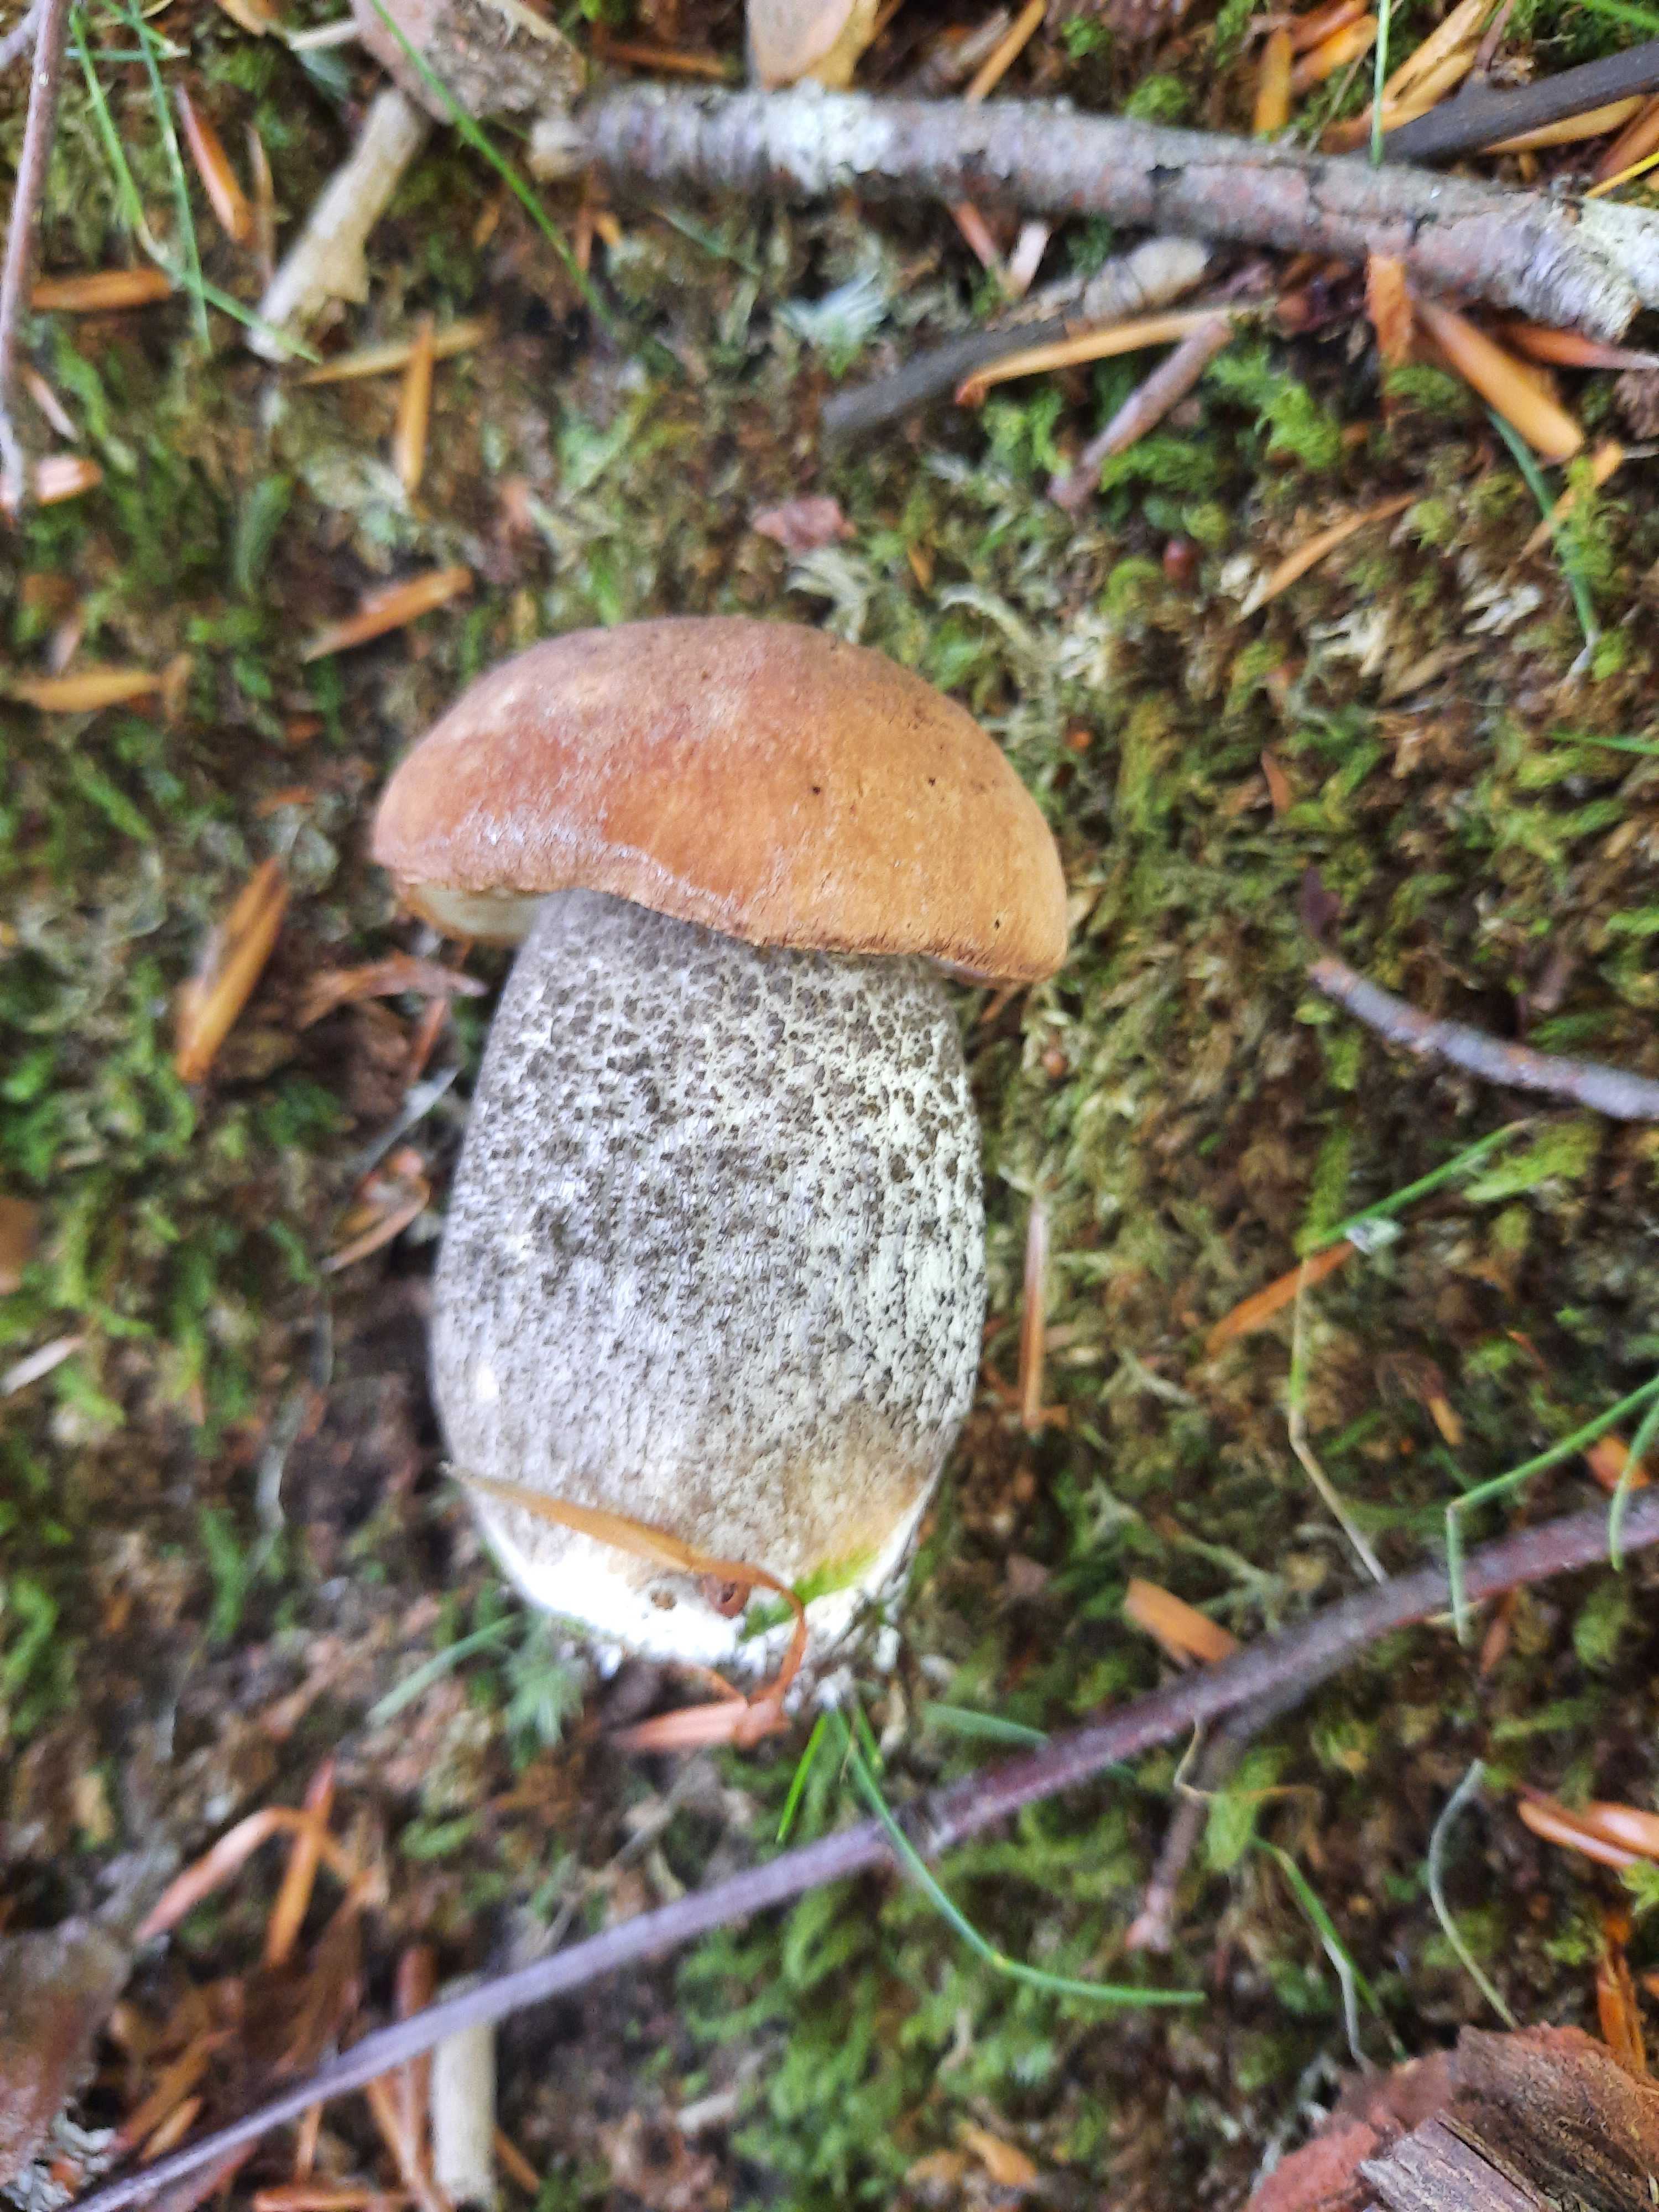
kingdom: Fungi
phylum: Basidiomycota
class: Agaricomycetes
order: Boletales
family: Boletaceae
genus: Leccinum
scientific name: Leccinum versipelle
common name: orange skælrørhat
